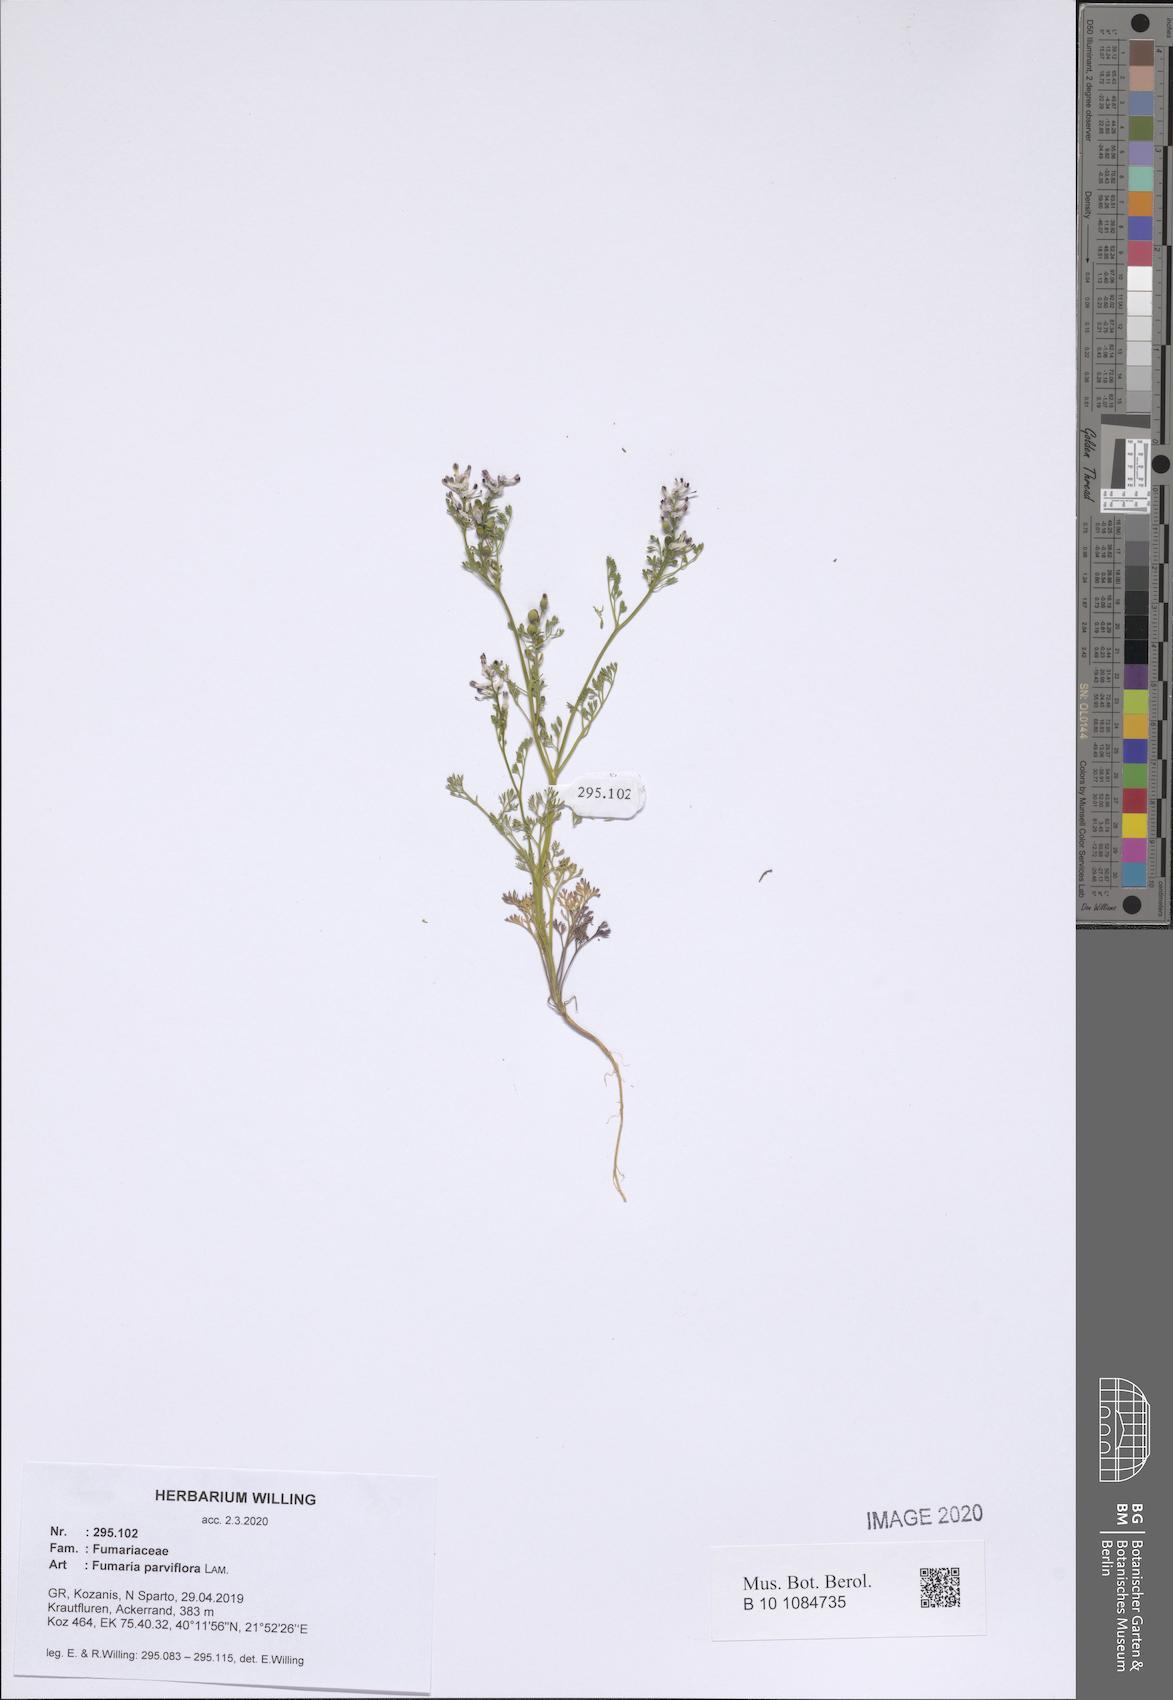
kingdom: Plantae
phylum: Tracheophyta
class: Magnoliopsida
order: Ranunculales
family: Papaveraceae
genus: Fumaria
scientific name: Fumaria parviflora
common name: Fine-leaved fumitory
